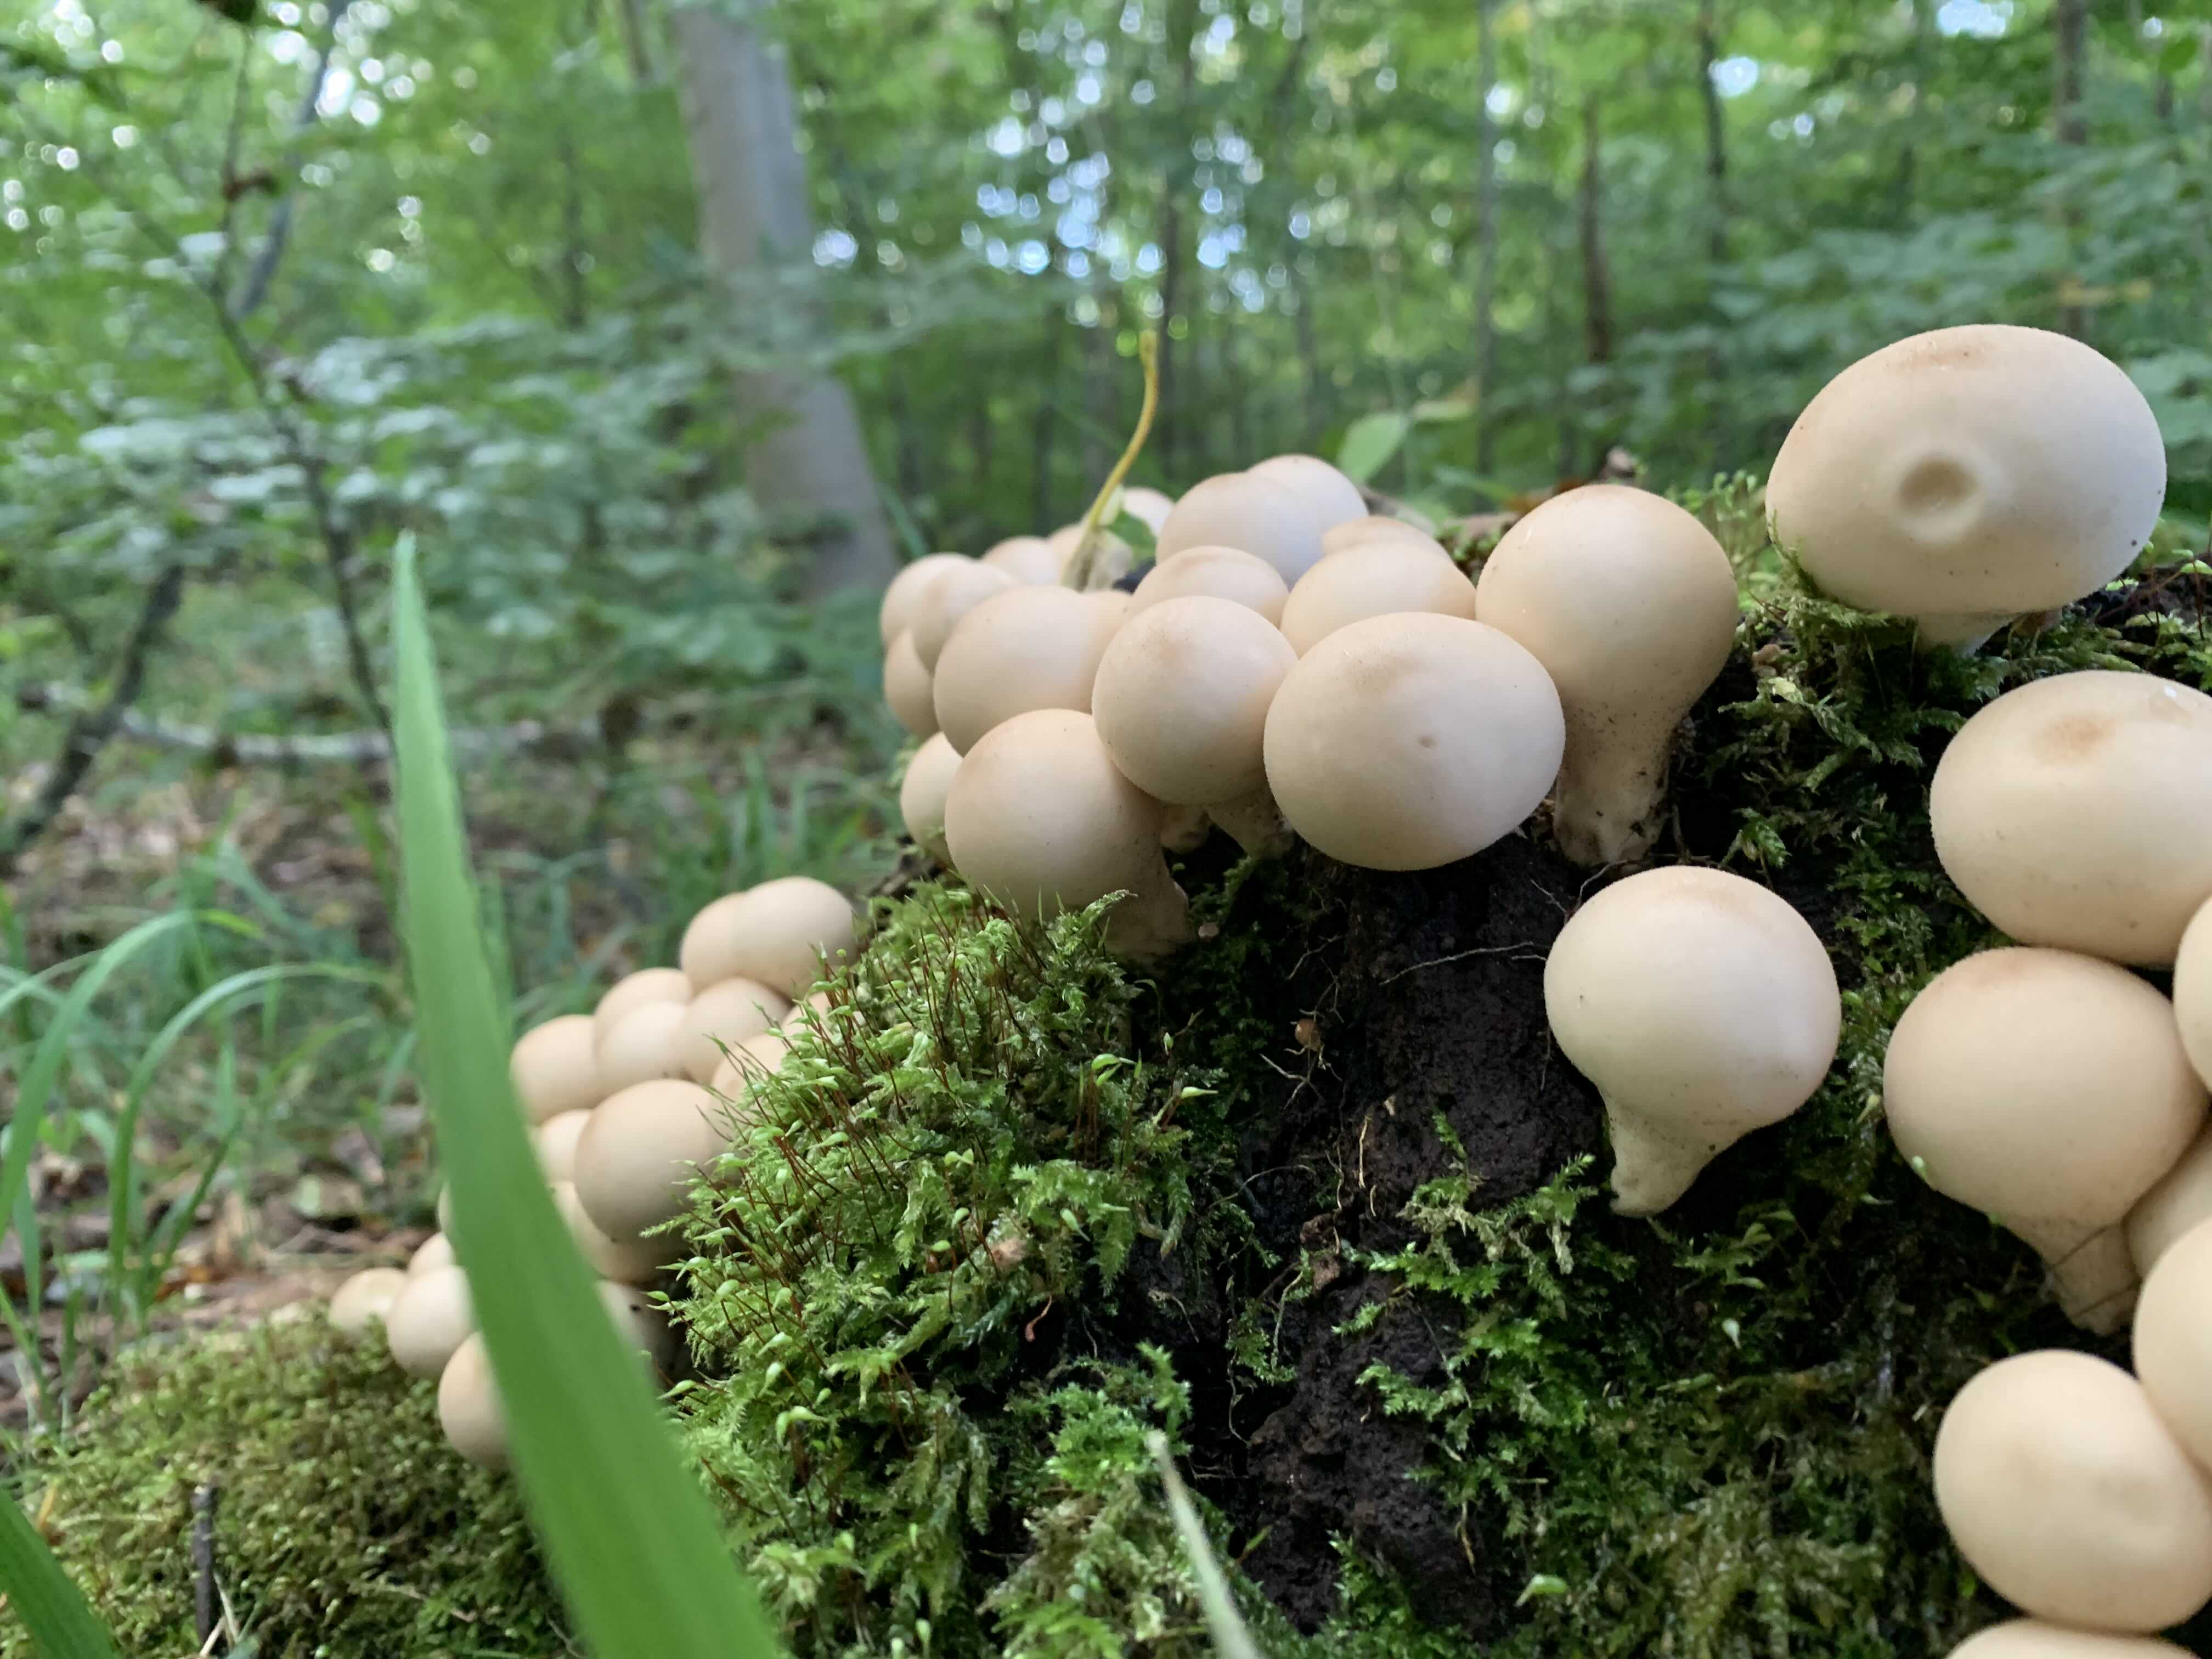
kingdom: Fungi
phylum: Basidiomycota
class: Agaricomycetes
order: Agaricales
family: Lycoperdaceae
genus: Apioperdon
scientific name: Apioperdon pyriforme
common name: pære-støvbold
